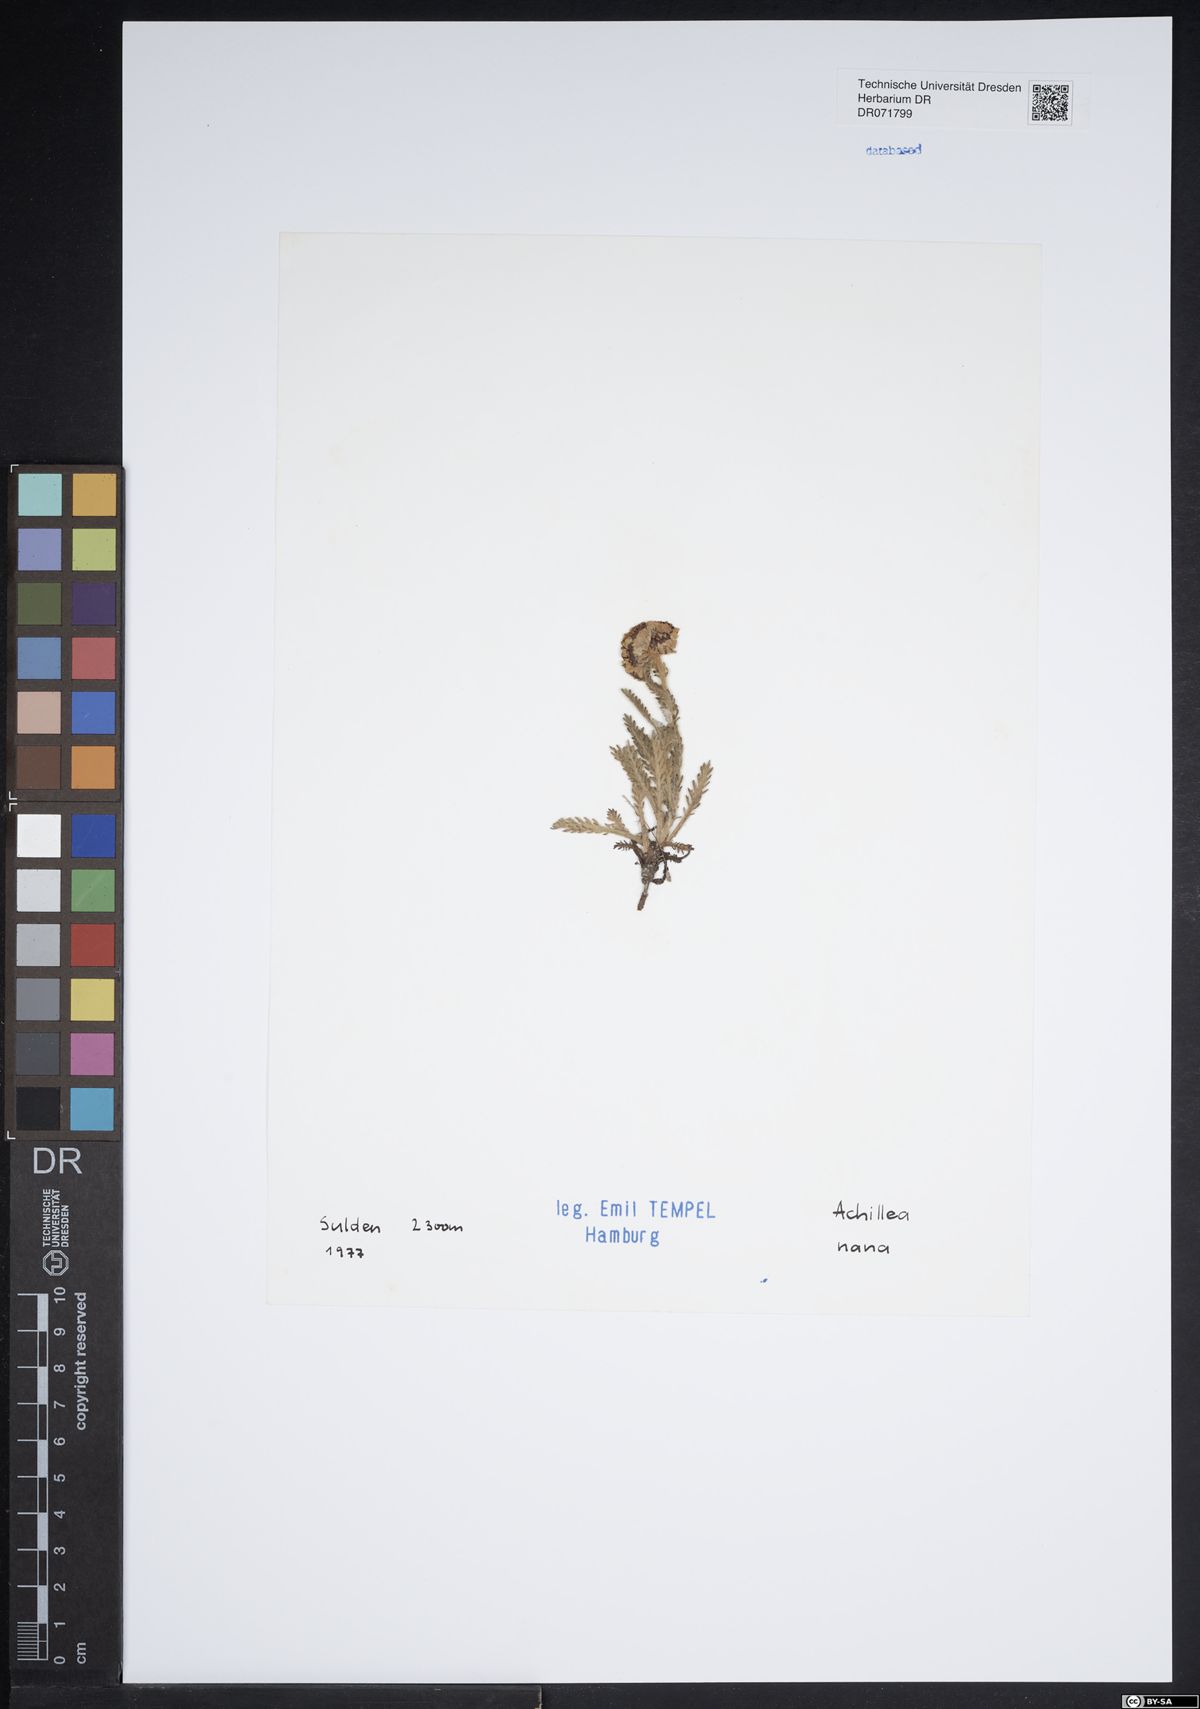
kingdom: Plantae
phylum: Tracheophyta
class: Magnoliopsida
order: Asterales
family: Asteraceae
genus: Achillea
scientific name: Achillea nana
